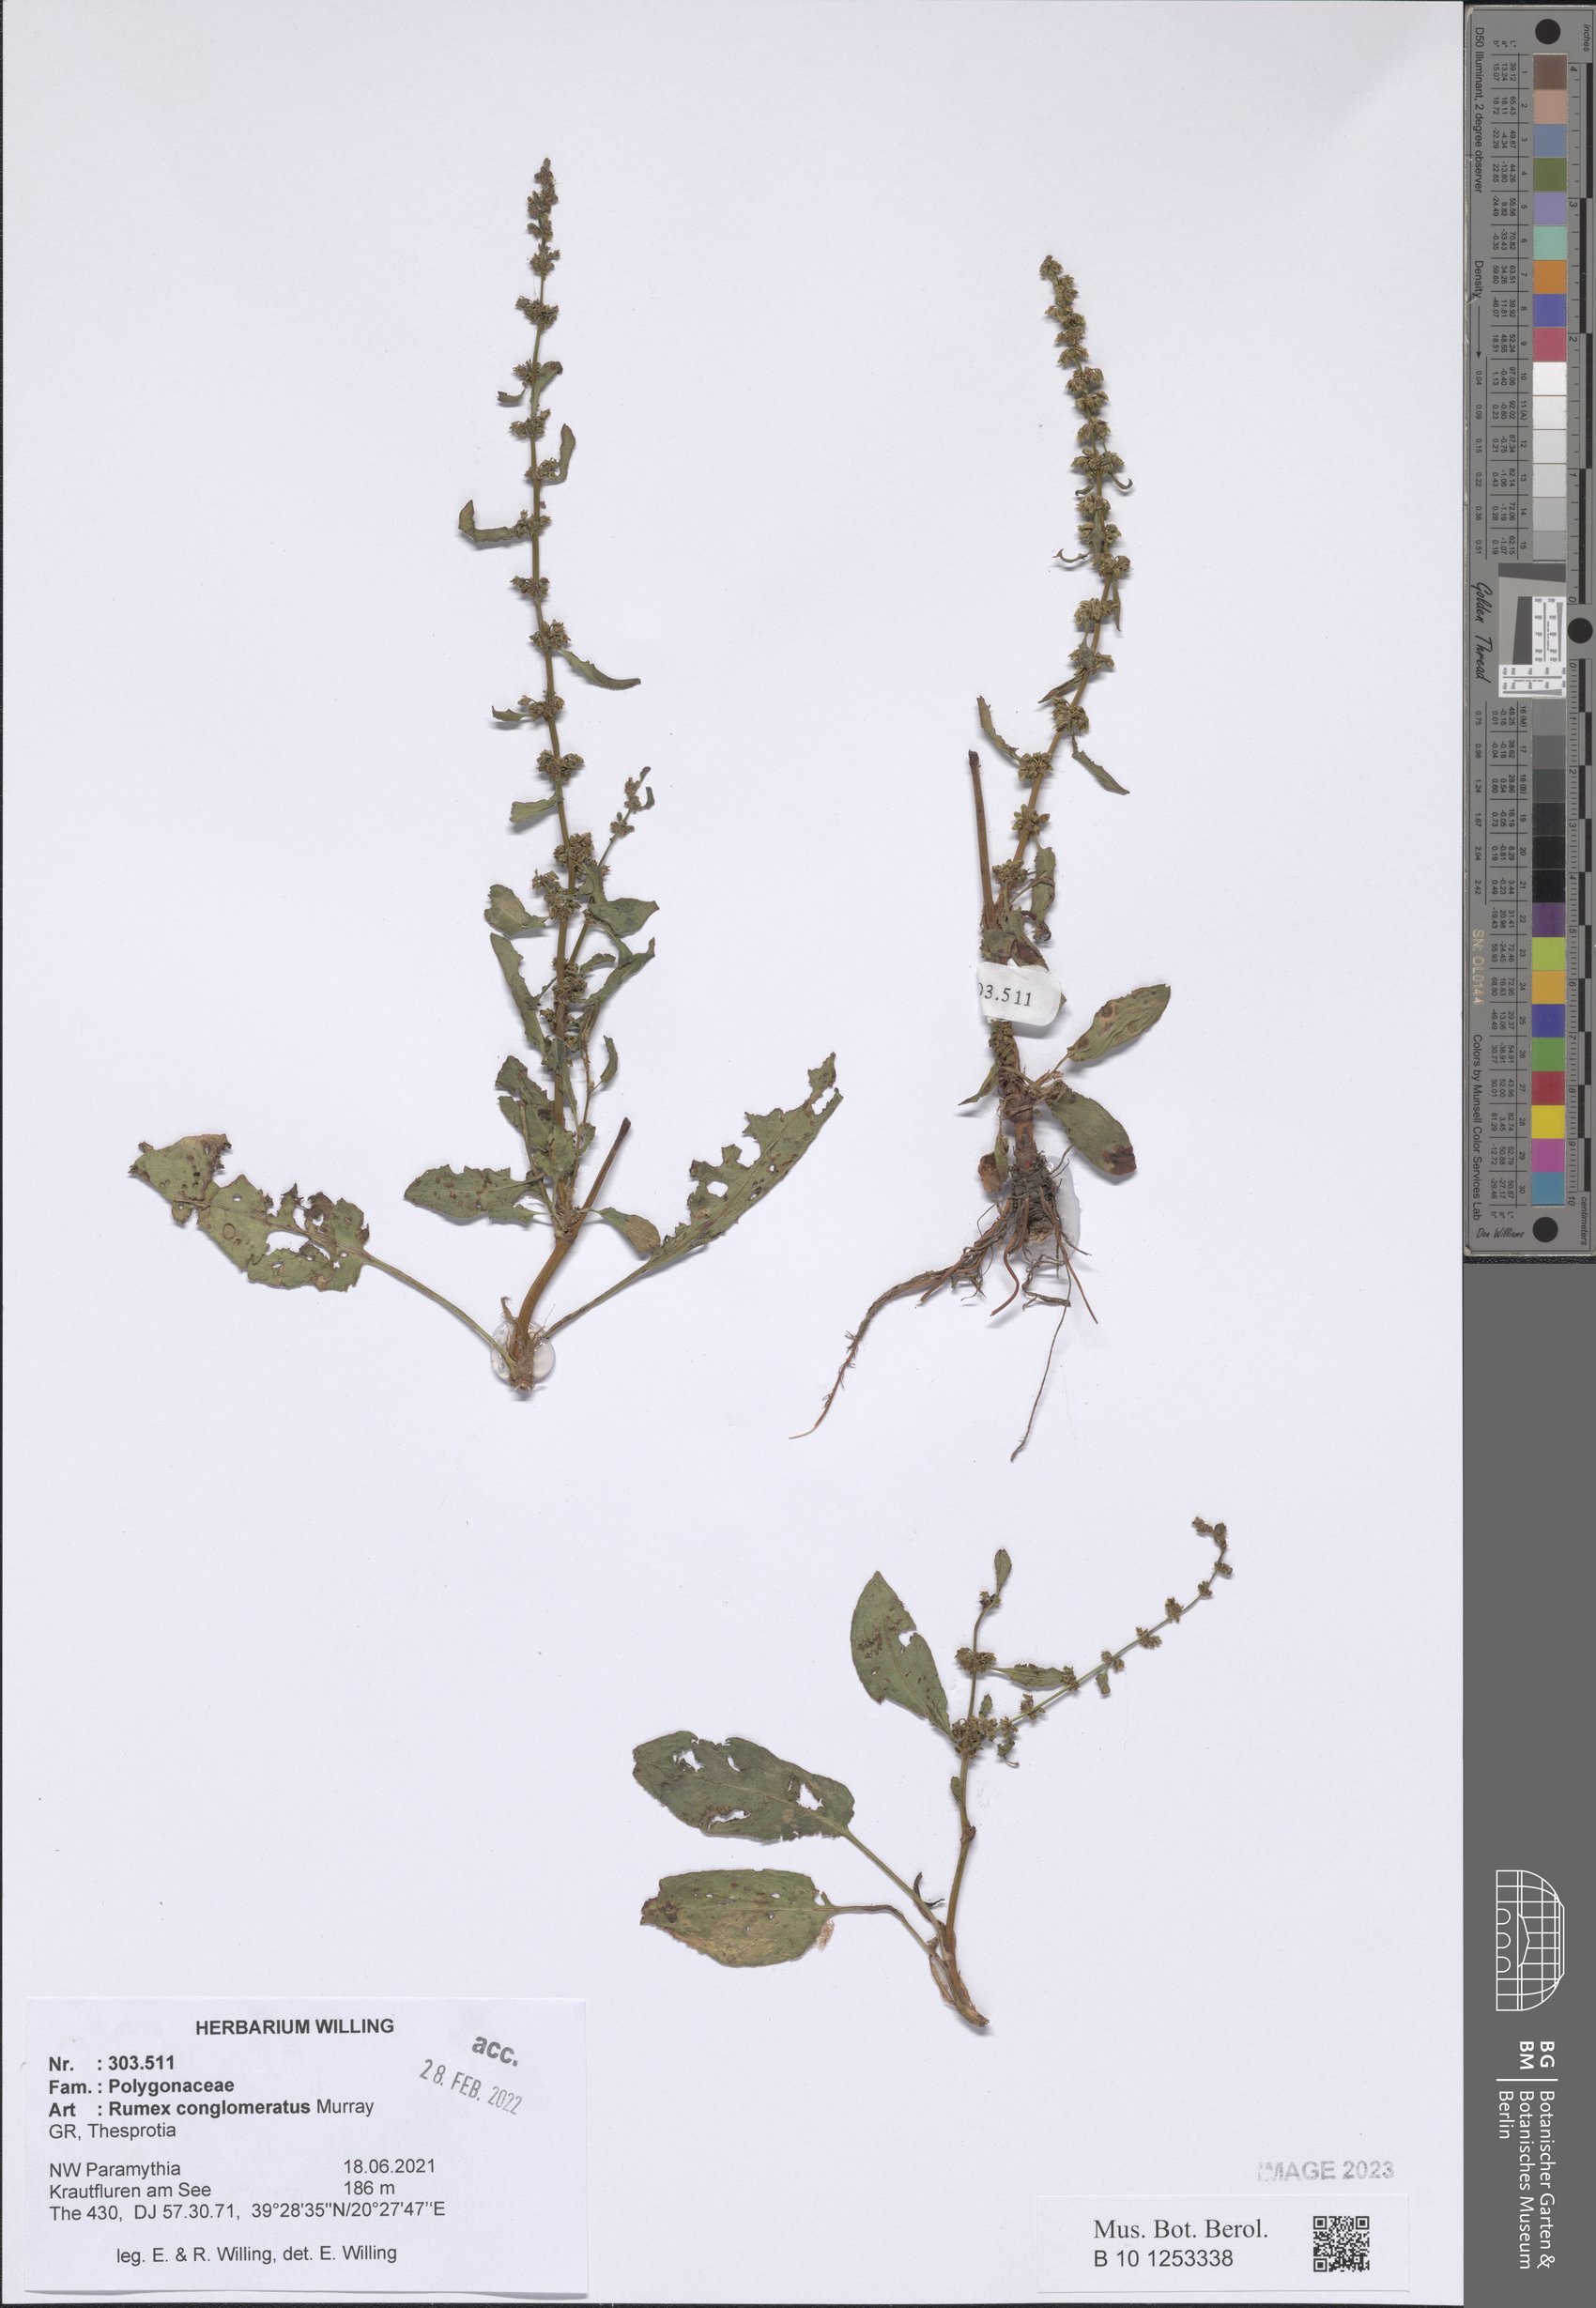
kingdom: Plantae
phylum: Tracheophyta
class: Magnoliopsida
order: Caryophyllales
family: Polygonaceae
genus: Rumex
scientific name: Rumex conglomeratus
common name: Clustered dock
